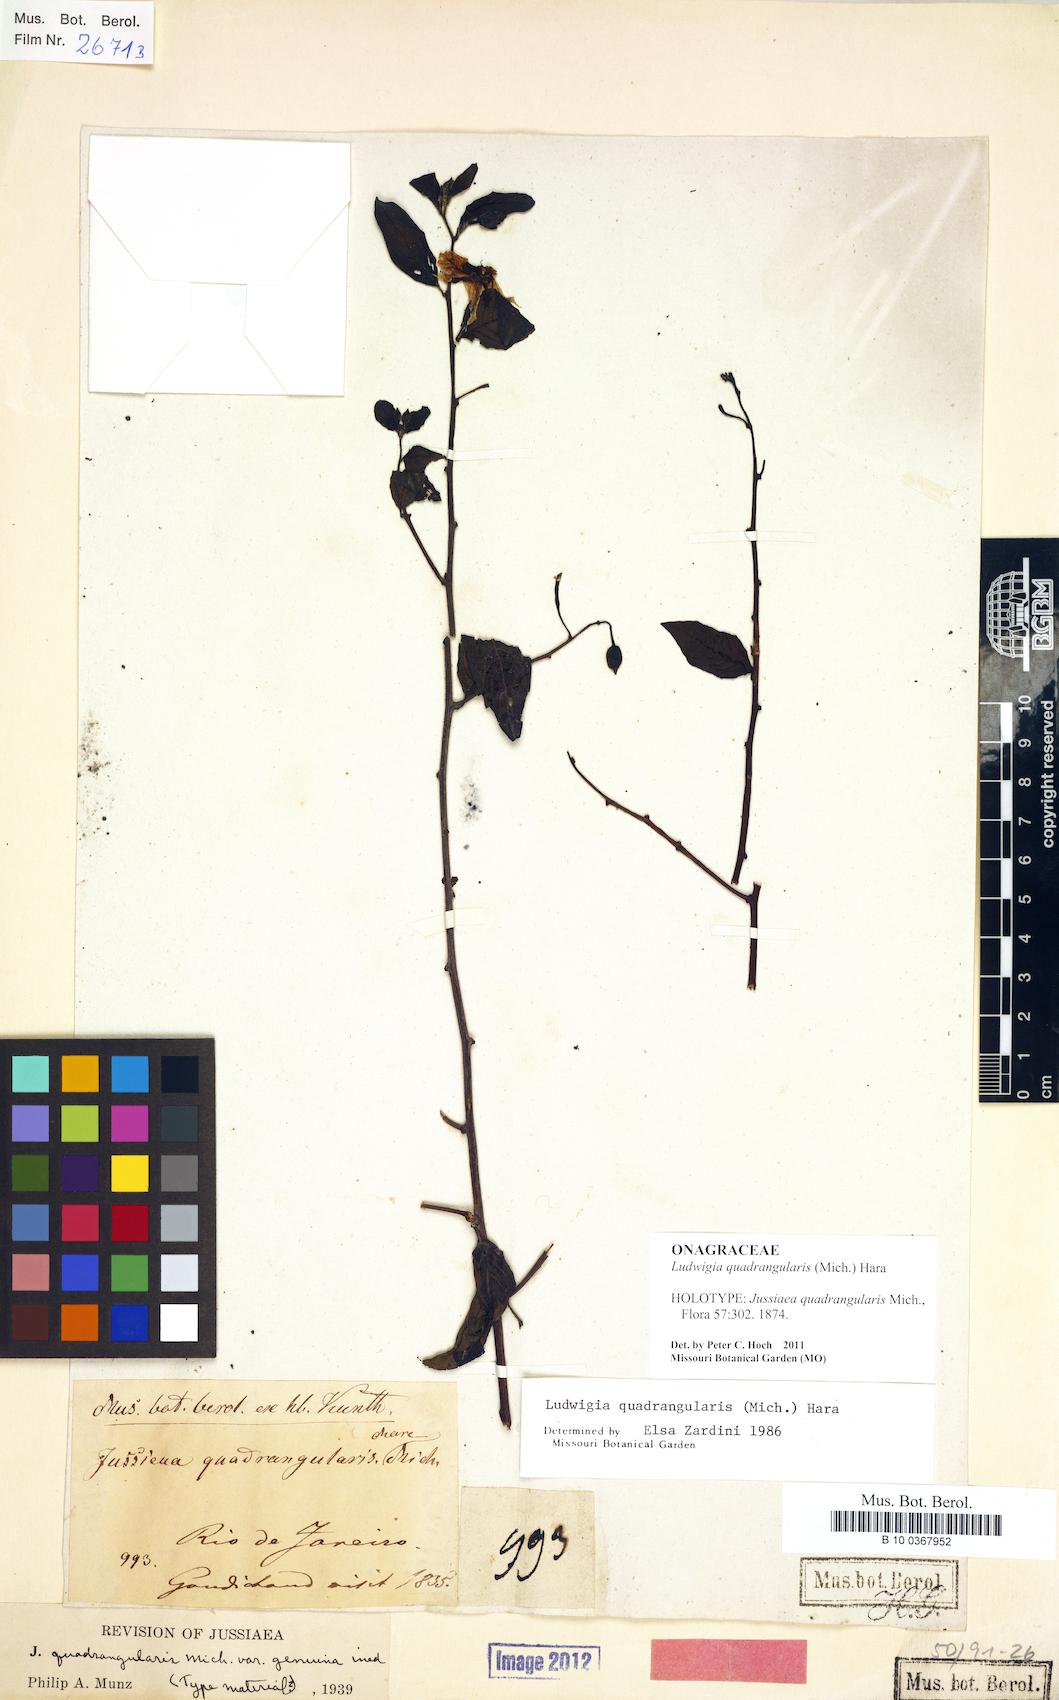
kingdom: Plantae
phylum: Tracheophyta
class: Magnoliopsida
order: Myrtales
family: Onagraceae
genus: Ludwigia
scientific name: Ludwigia quadrangularis
